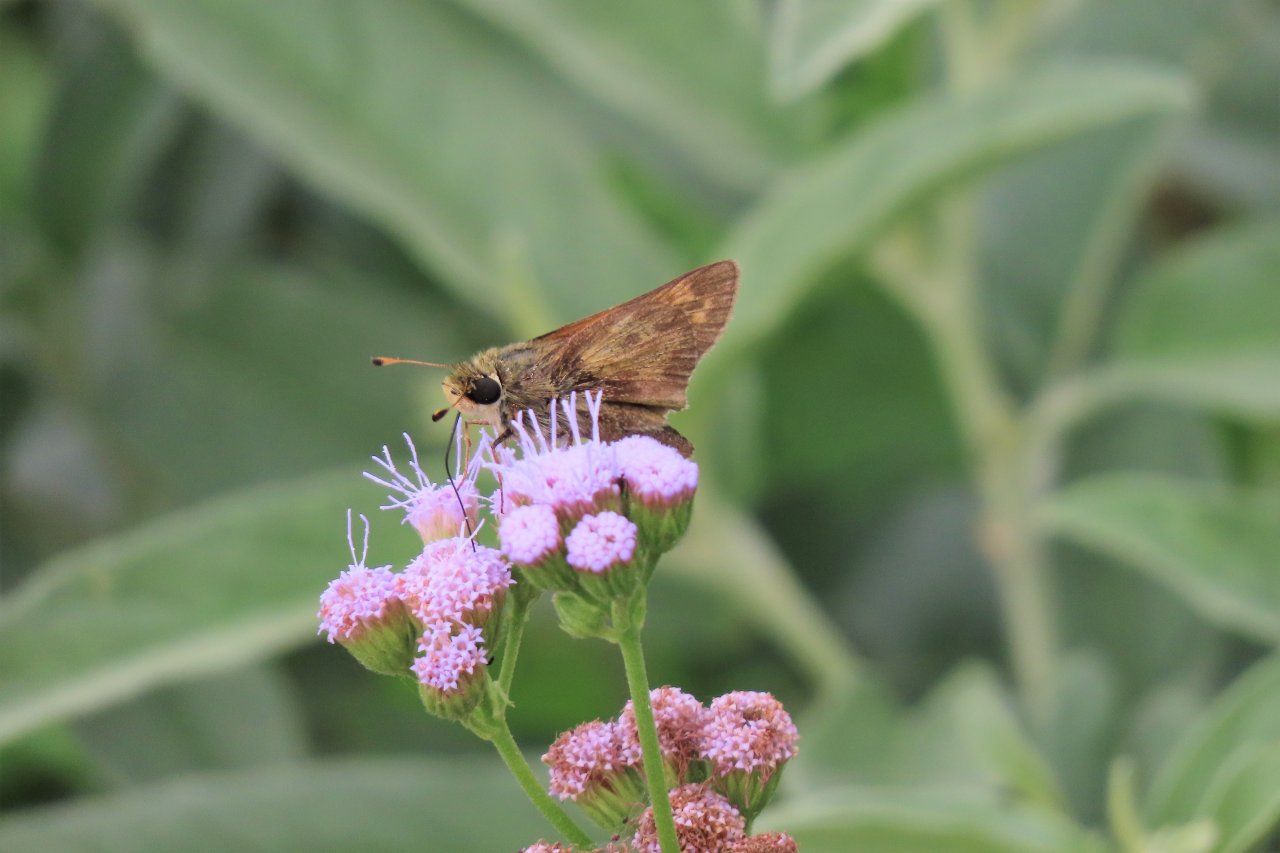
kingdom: Animalia
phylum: Arthropoda
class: Insecta
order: Lepidoptera
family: Hesperiidae
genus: Polites
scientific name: Polites vibex
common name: Whirlabout
